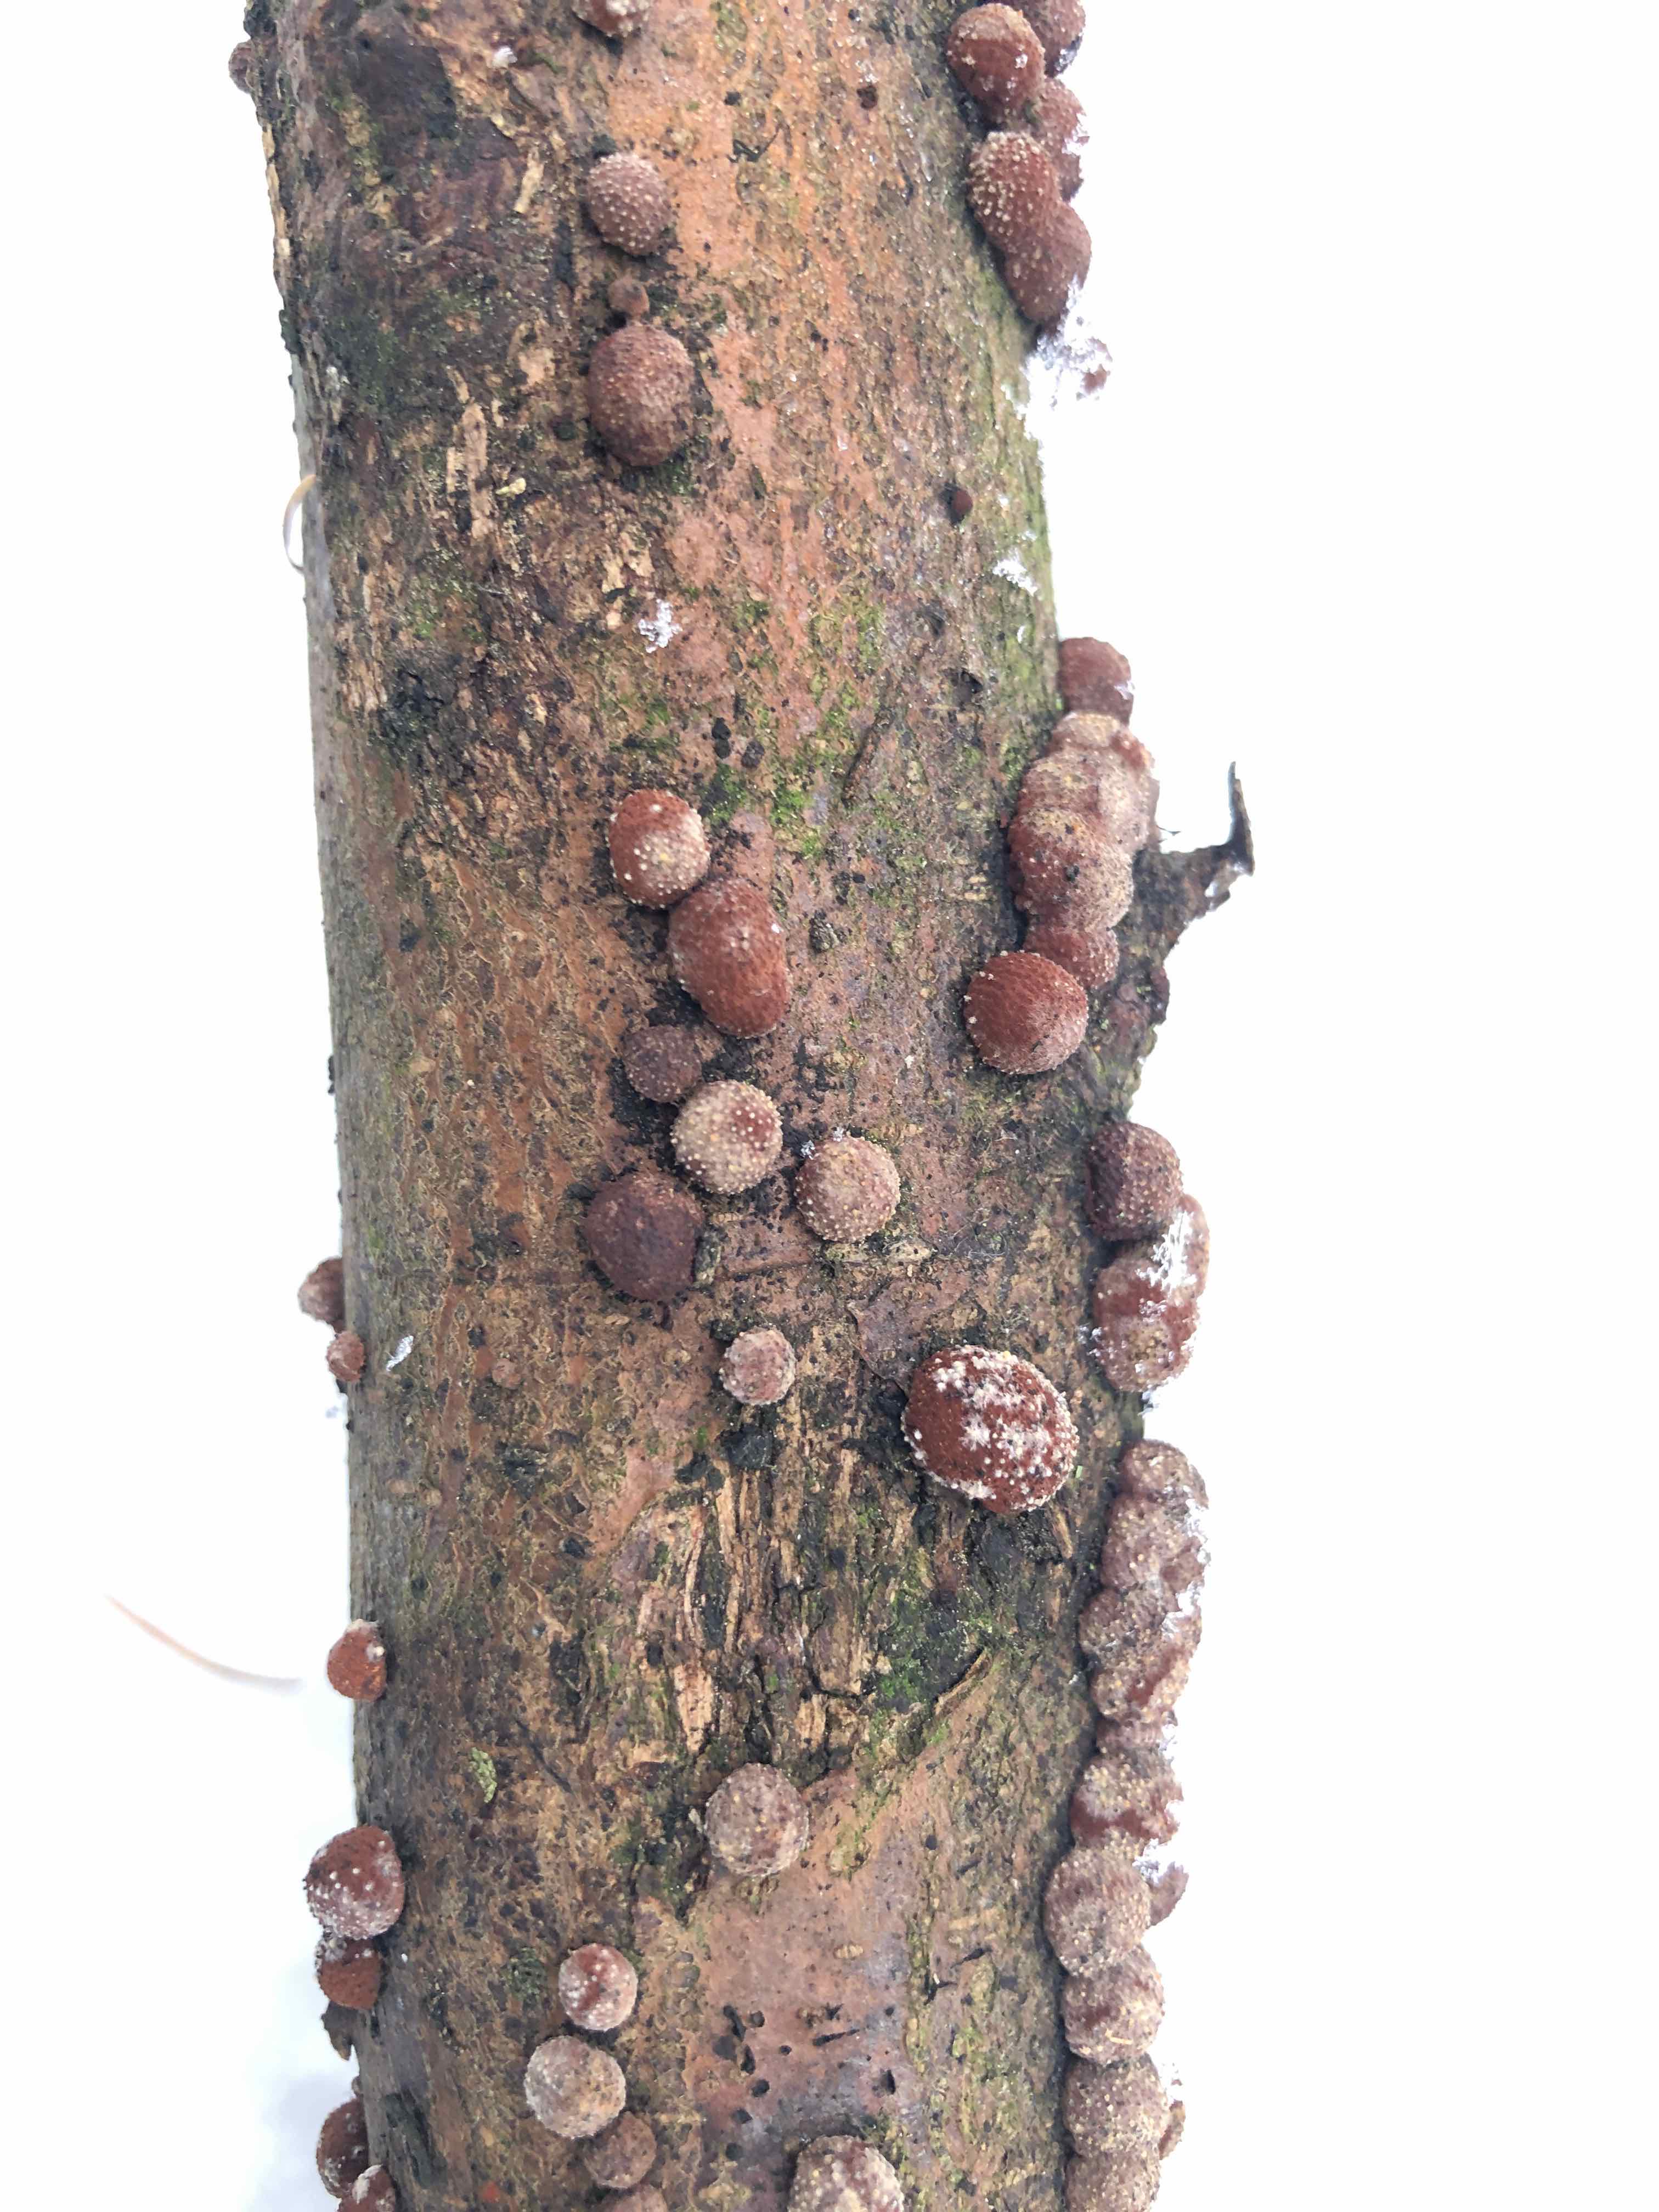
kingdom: Fungi
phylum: Ascomycota
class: Sordariomycetes
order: Xylariales
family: Hypoxylaceae
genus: Hypoxylon
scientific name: Hypoxylon fragiforme
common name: kuljordbær
